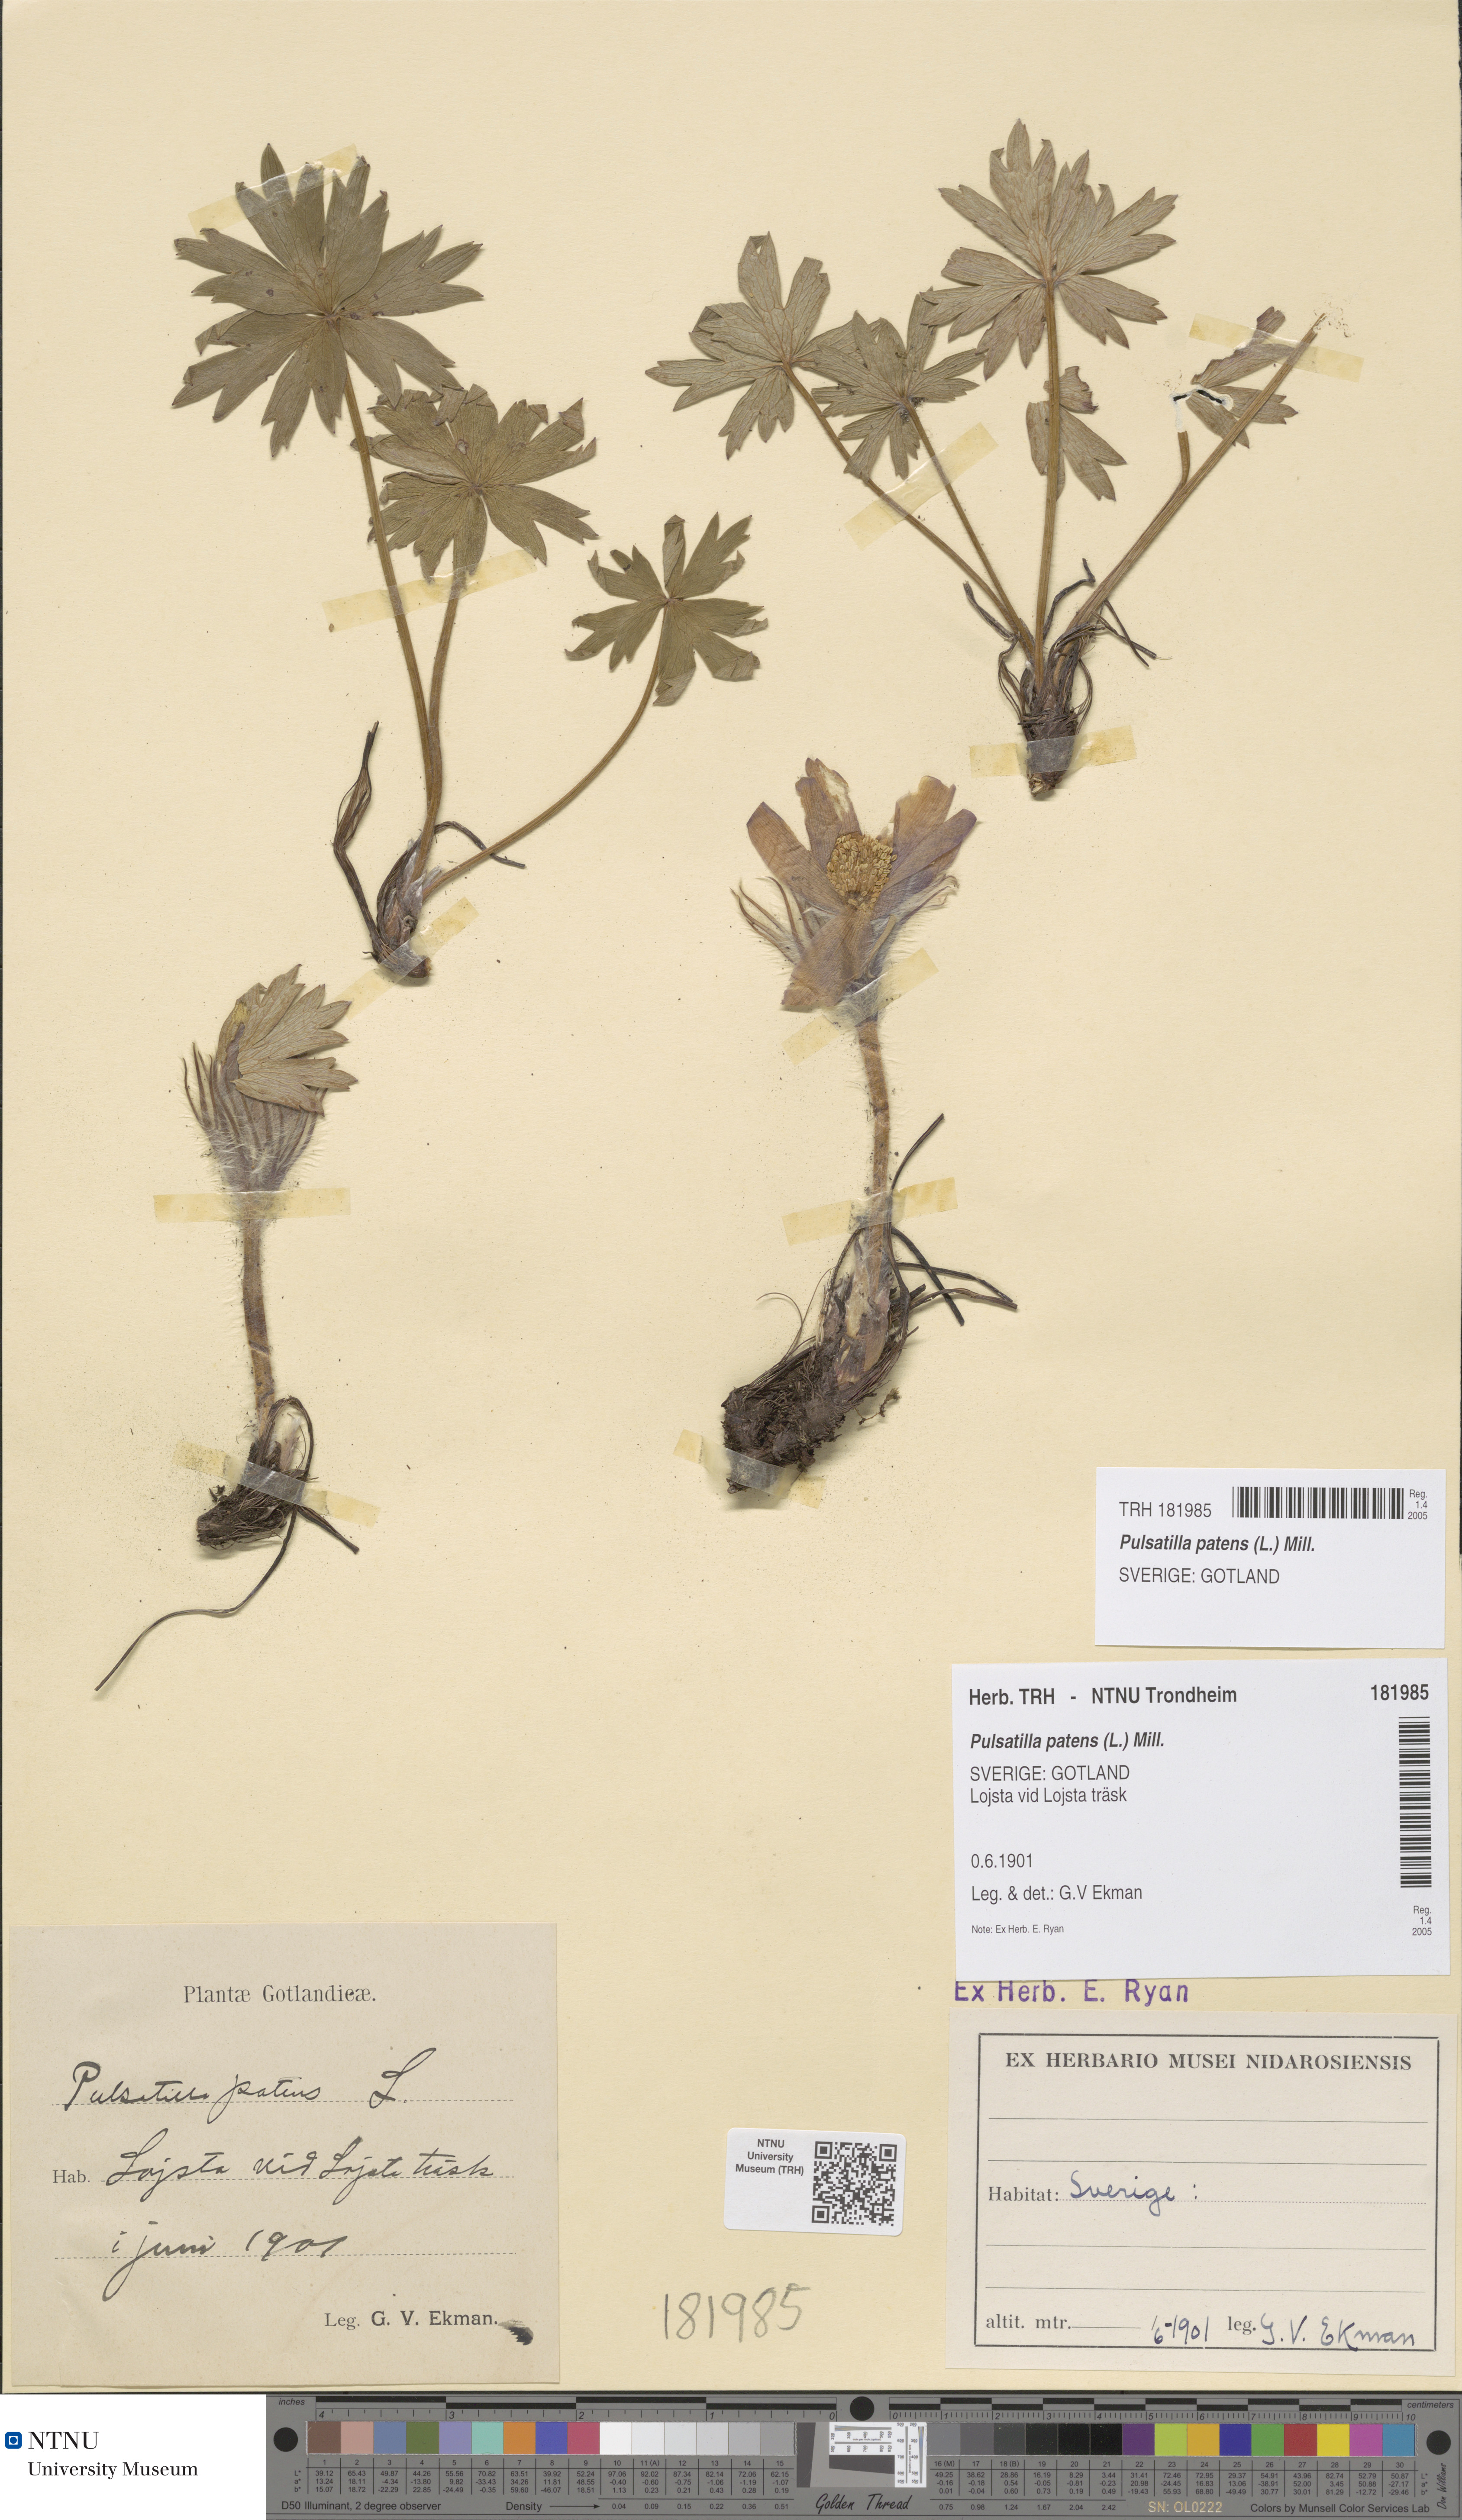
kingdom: Plantae
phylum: Tracheophyta
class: Magnoliopsida
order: Ranunculales
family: Ranunculaceae
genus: Pulsatilla
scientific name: Pulsatilla patens
